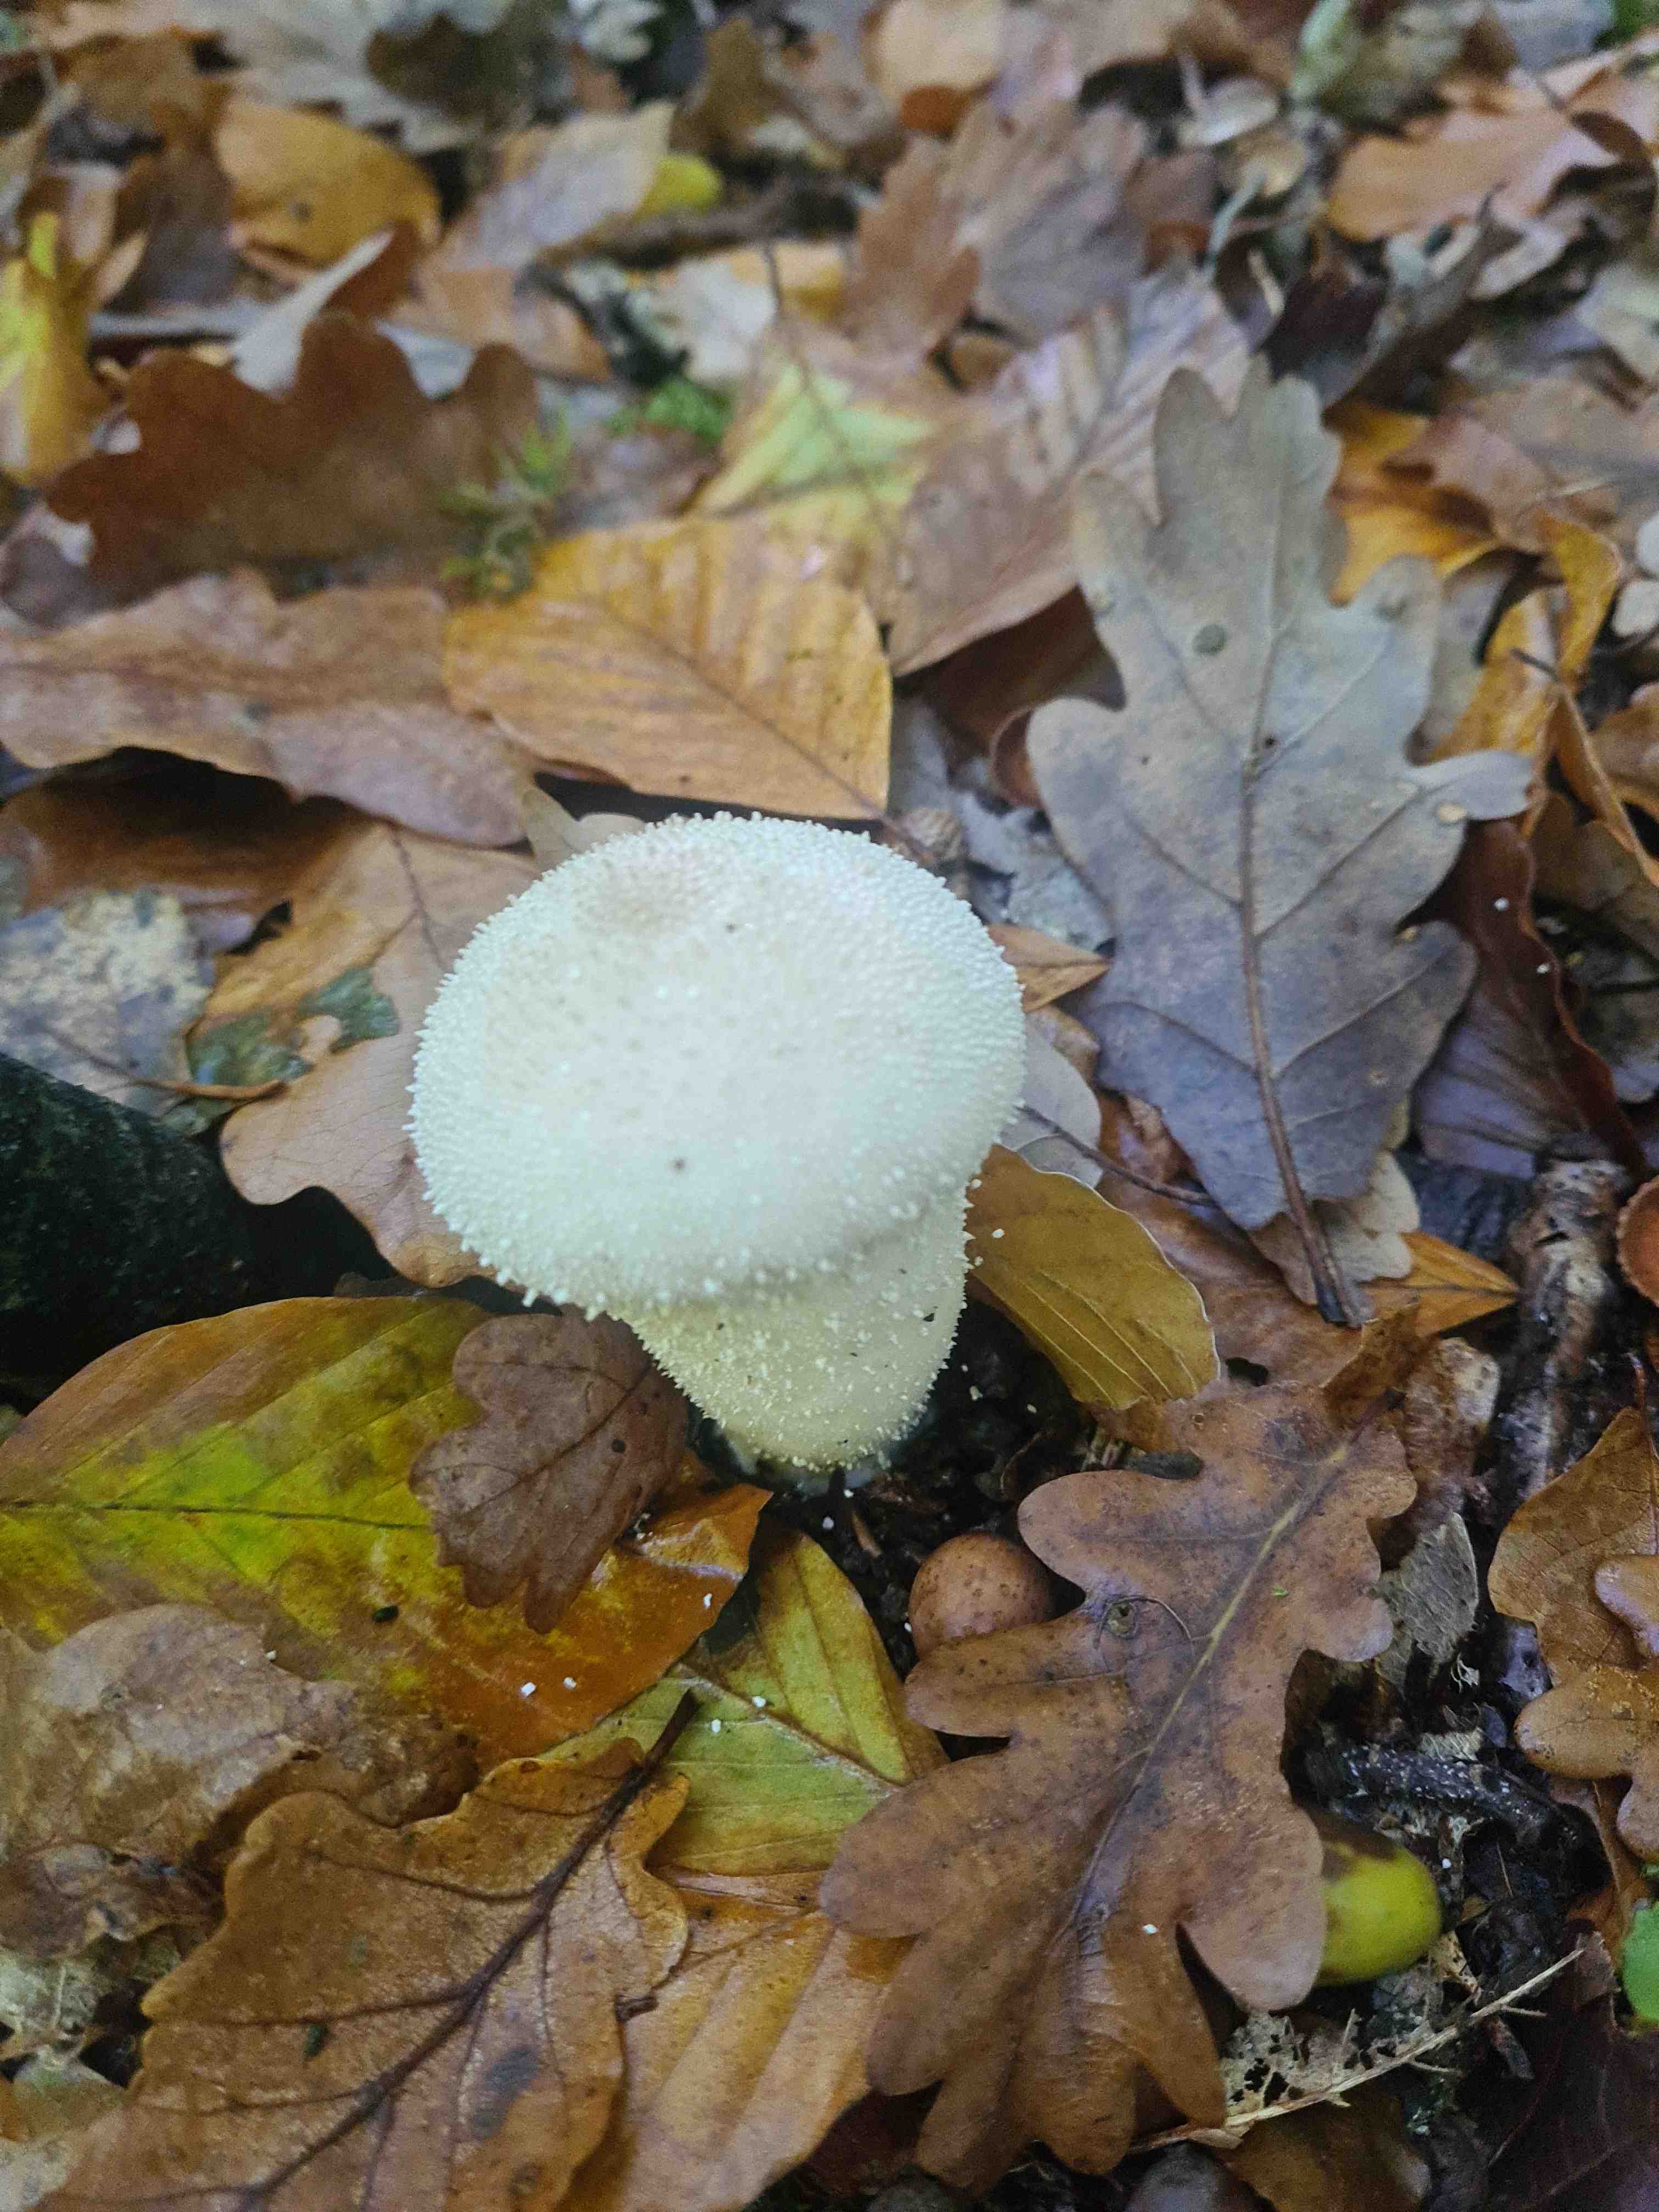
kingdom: Fungi
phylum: Basidiomycota
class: Agaricomycetes
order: Agaricales
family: Lycoperdaceae
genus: Lycoperdon
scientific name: Lycoperdon perlatum
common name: krystal-støvbold
